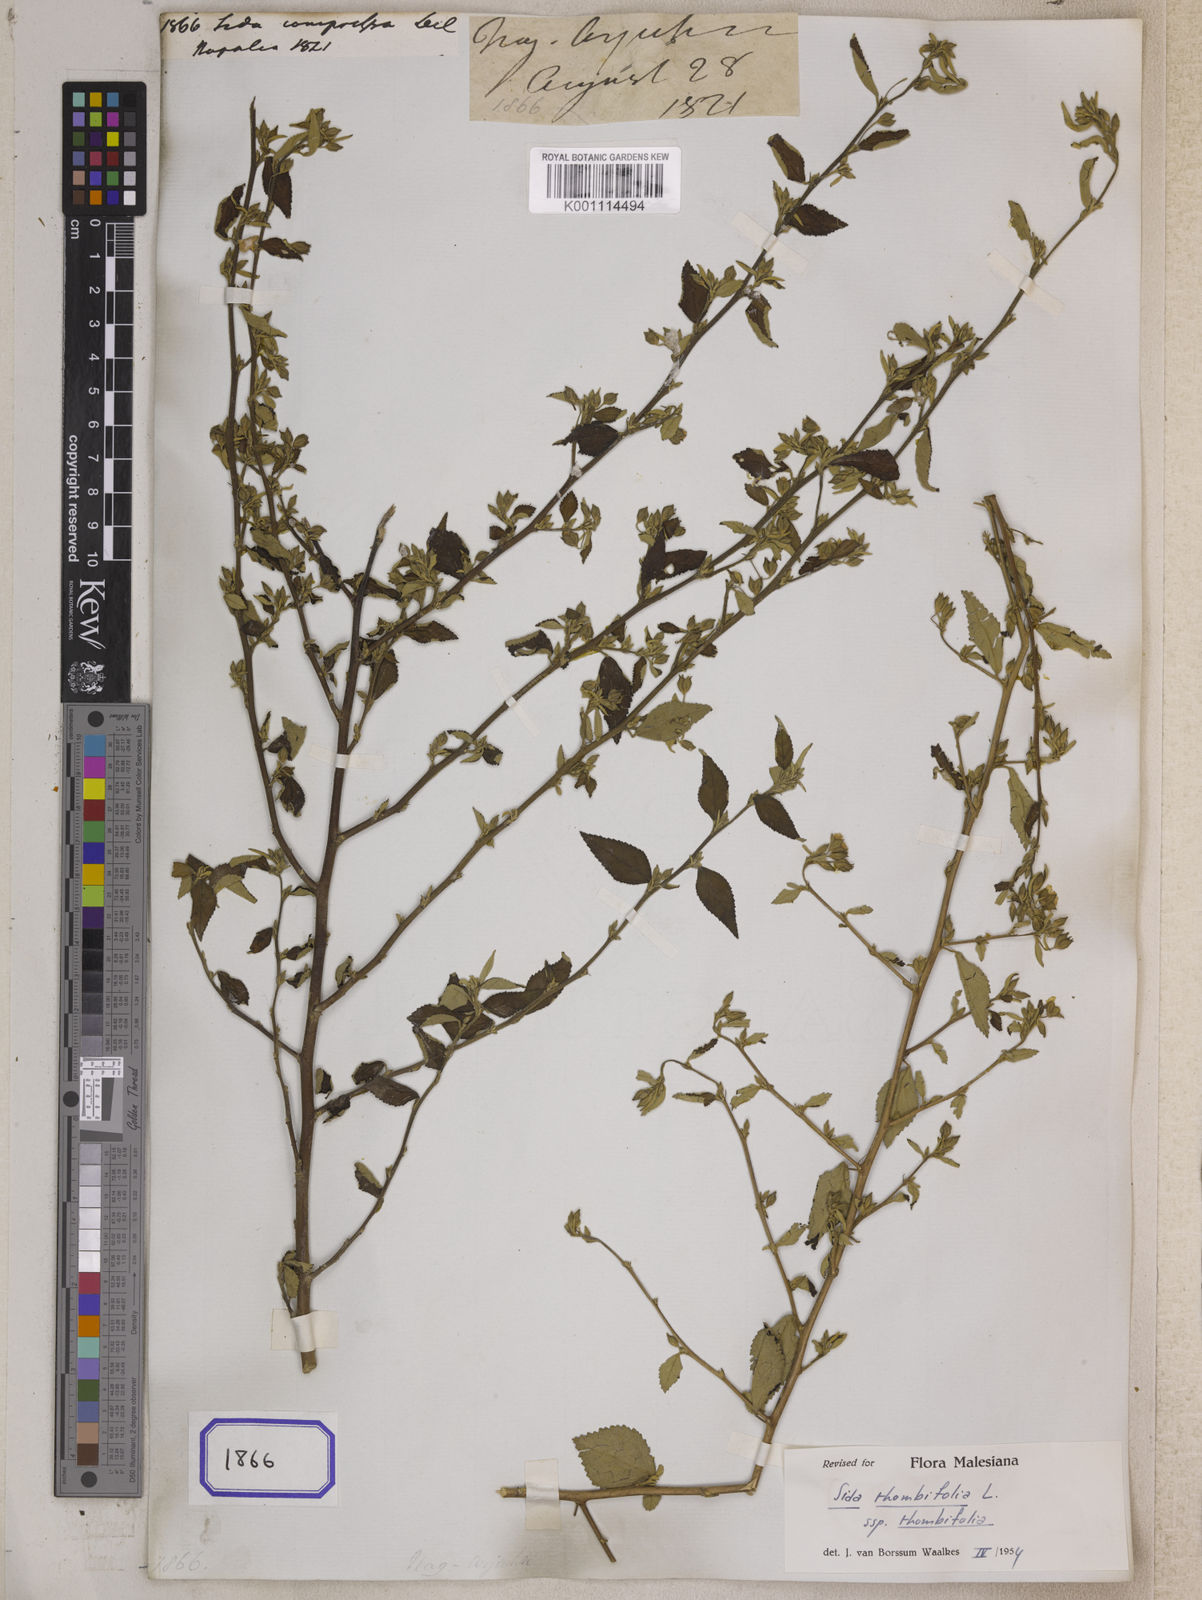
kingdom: Plantae
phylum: Tracheophyta
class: Magnoliopsida
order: Malvales
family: Malvaceae
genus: Sida
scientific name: Sida rhombifolia
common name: Queensland-hemp
